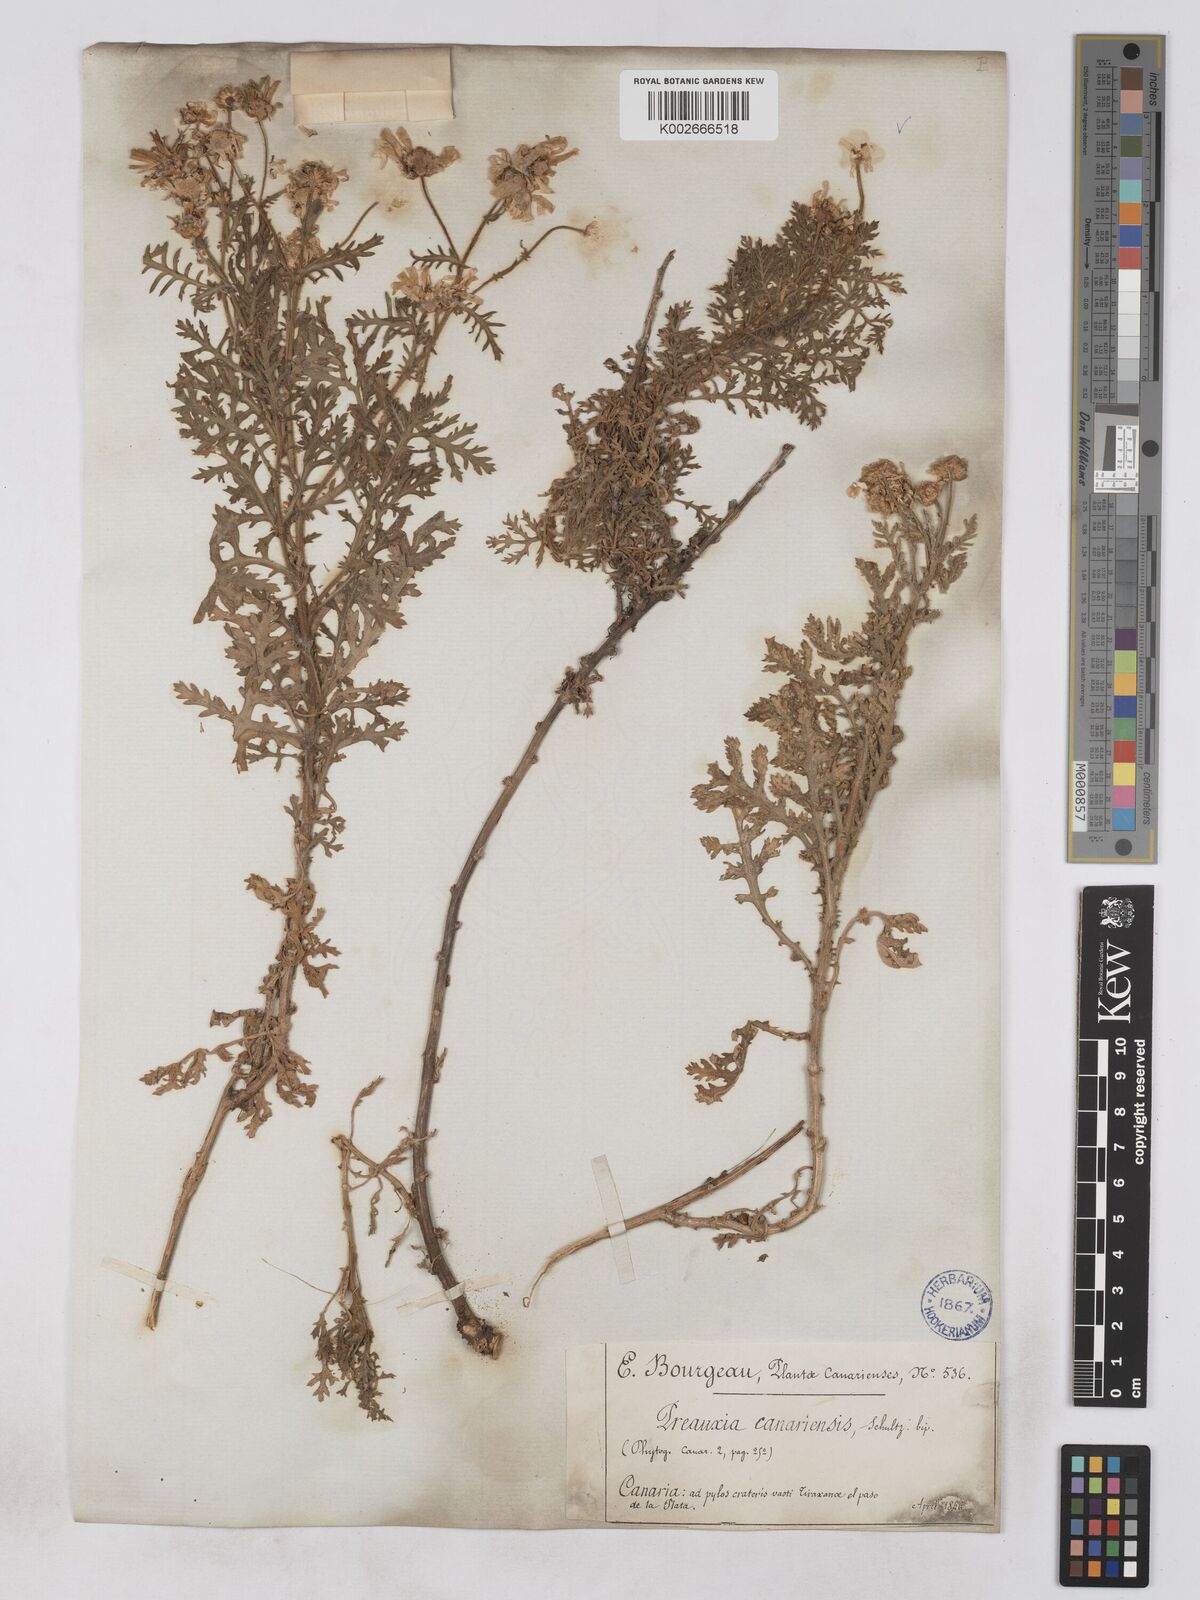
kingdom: Plantae
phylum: Tracheophyta
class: Magnoliopsida
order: Asterales
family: Asteraceae
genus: Argyranthemum
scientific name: Argyranthemum adauctum
